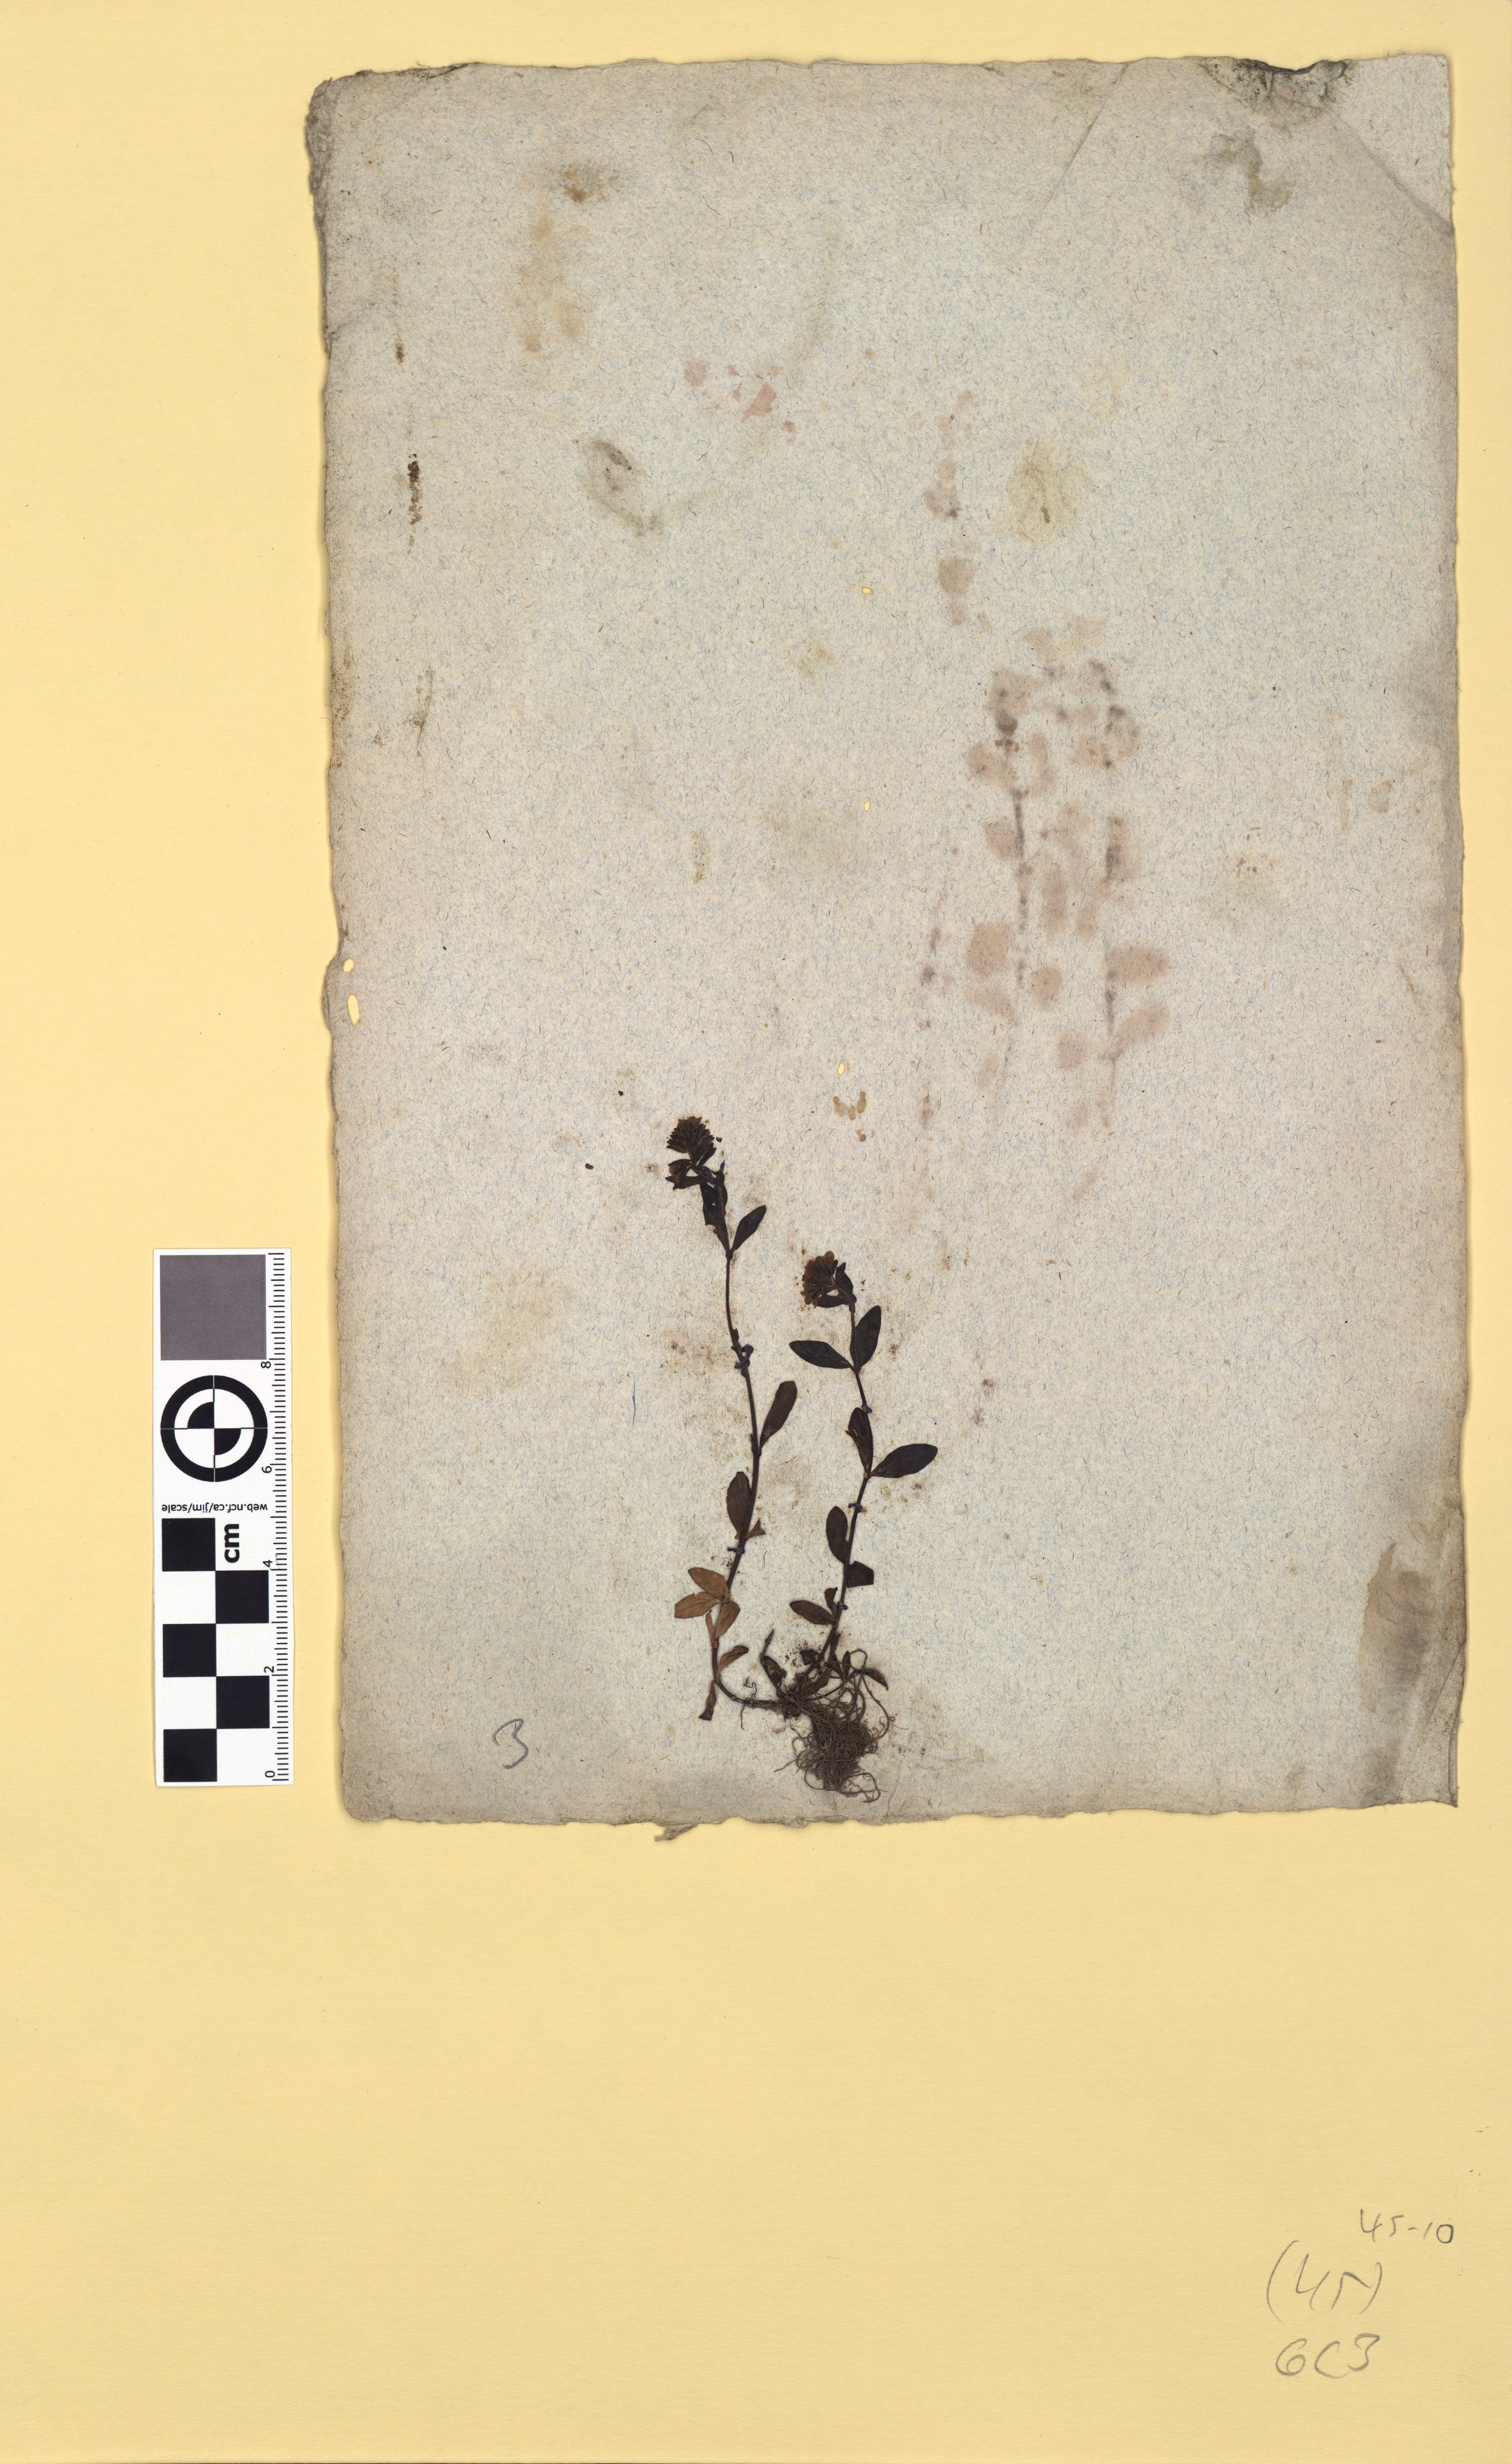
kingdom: Plantae
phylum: Tracheophyta
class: Magnoliopsida
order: Lamiales
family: Plantaginaceae
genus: Veronica
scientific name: Veronica alpina
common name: Alpine speedwell
